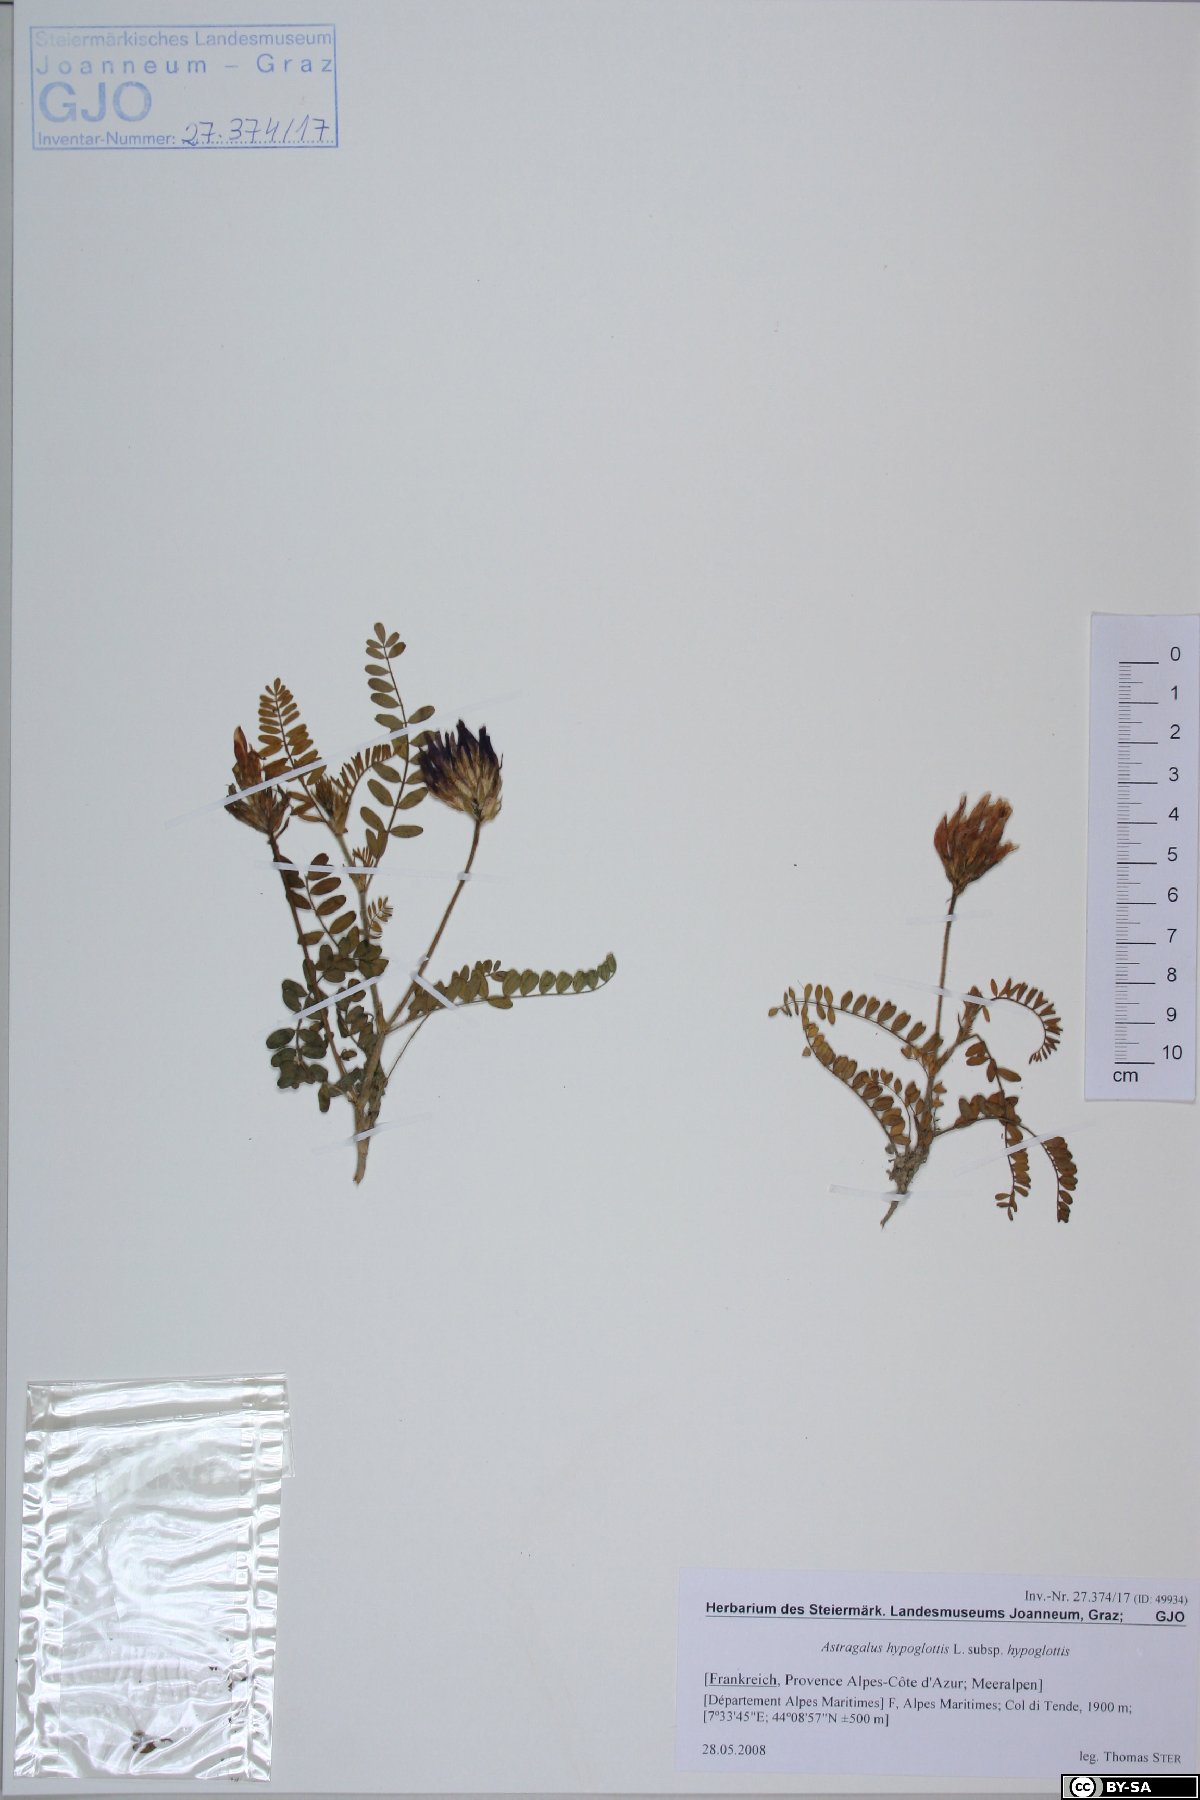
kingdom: Plantae
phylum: Tracheophyta
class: Magnoliopsida
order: Fabales
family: Fabaceae
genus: Astragalus
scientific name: Astragalus hypoglottis
